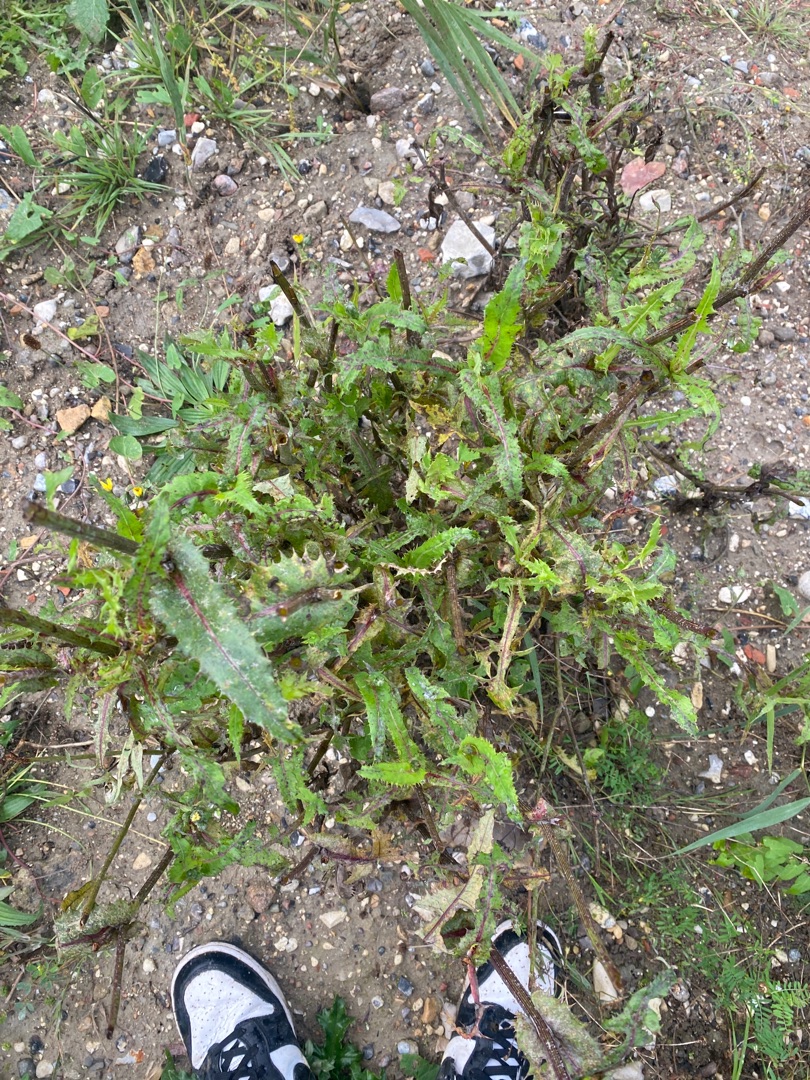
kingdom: Plantae
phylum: Tracheophyta
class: Magnoliopsida
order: Asterales
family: Asteraceae
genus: Sonchus
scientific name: Sonchus oleraceus
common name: Almindelig svinemælk
